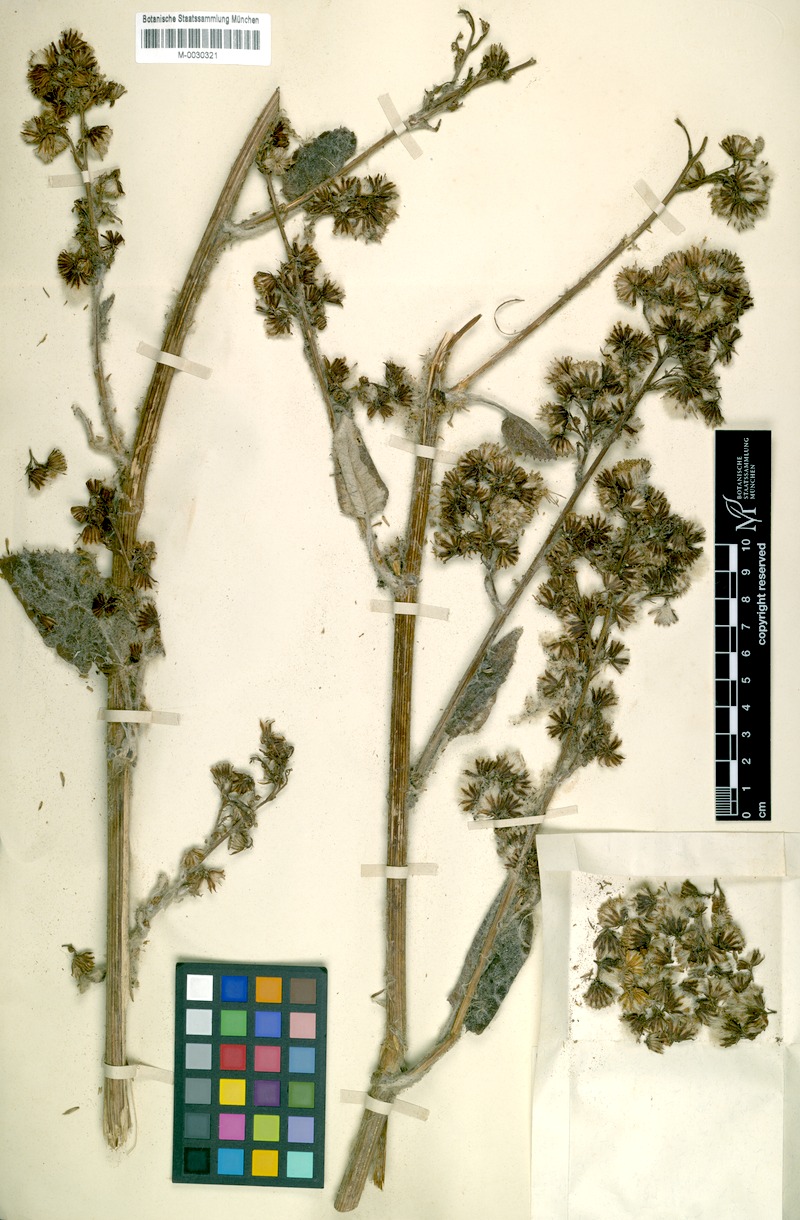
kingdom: Plantae
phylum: Tracheophyta
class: Magnoliopsida
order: Asterales
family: Asteraceae
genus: Senecio
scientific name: Senecio almasensis
